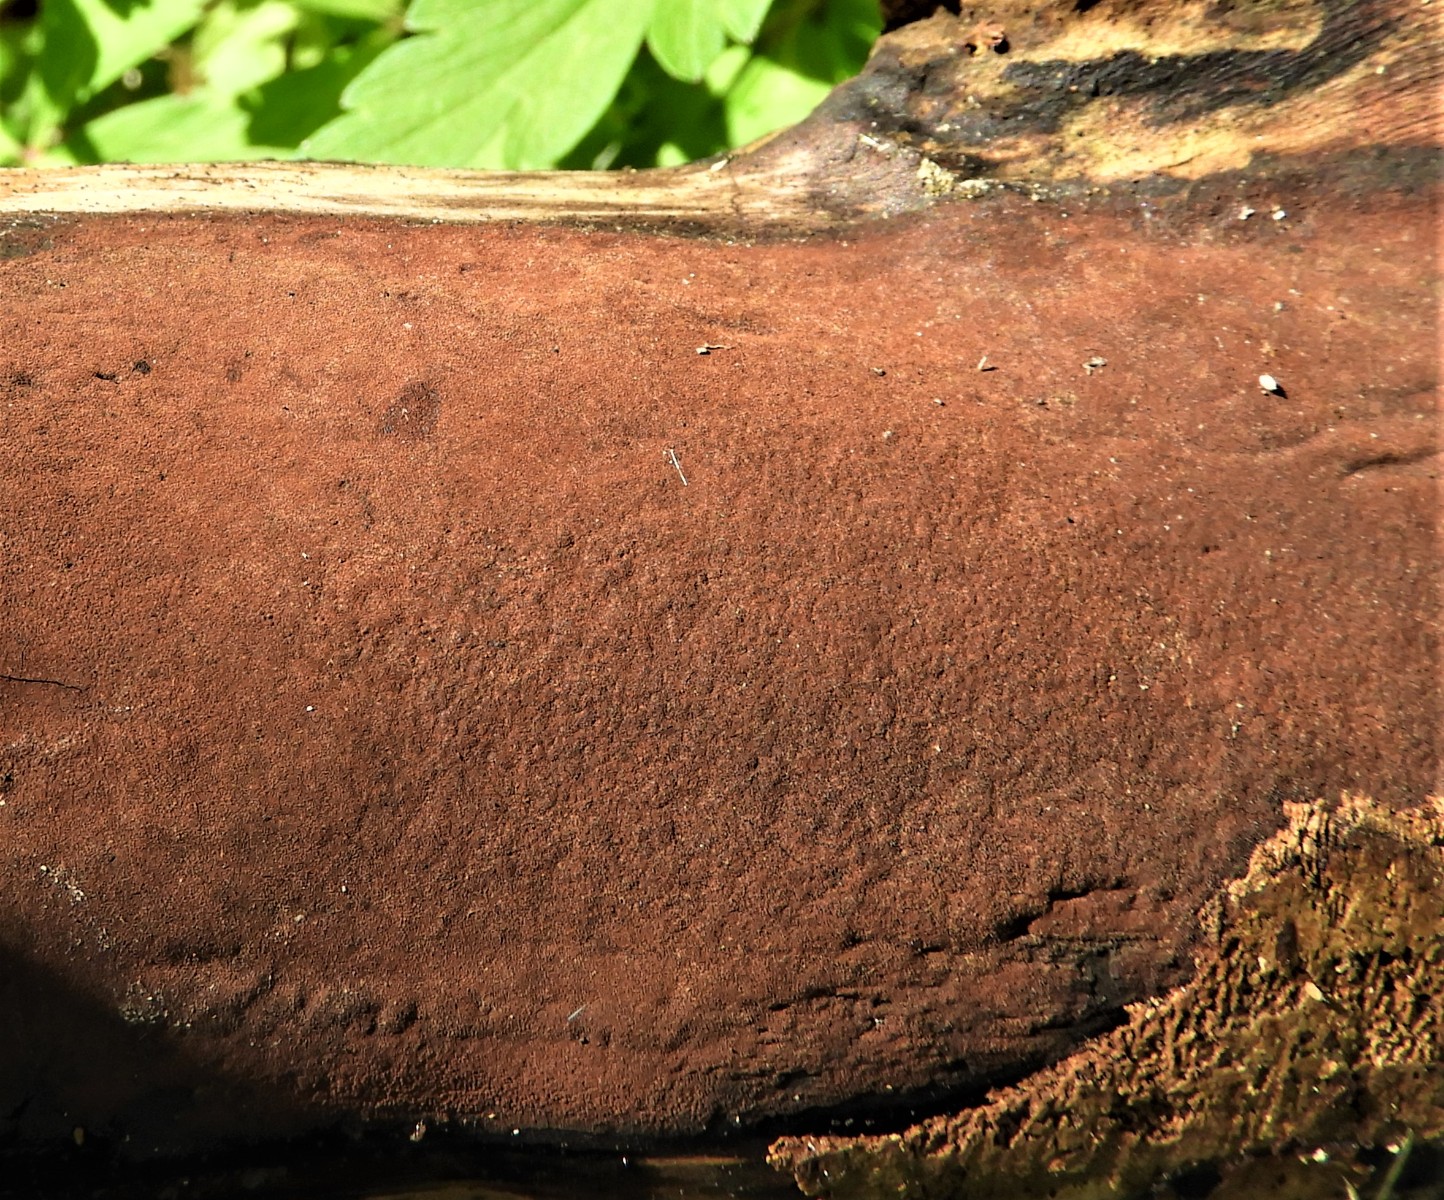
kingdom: Fungi
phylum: Ascomycota
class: Sordariomycetes
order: Xylariales
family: Hypoxylaceae
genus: Hypoxylon
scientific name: Hypoxylon
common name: kulbær
